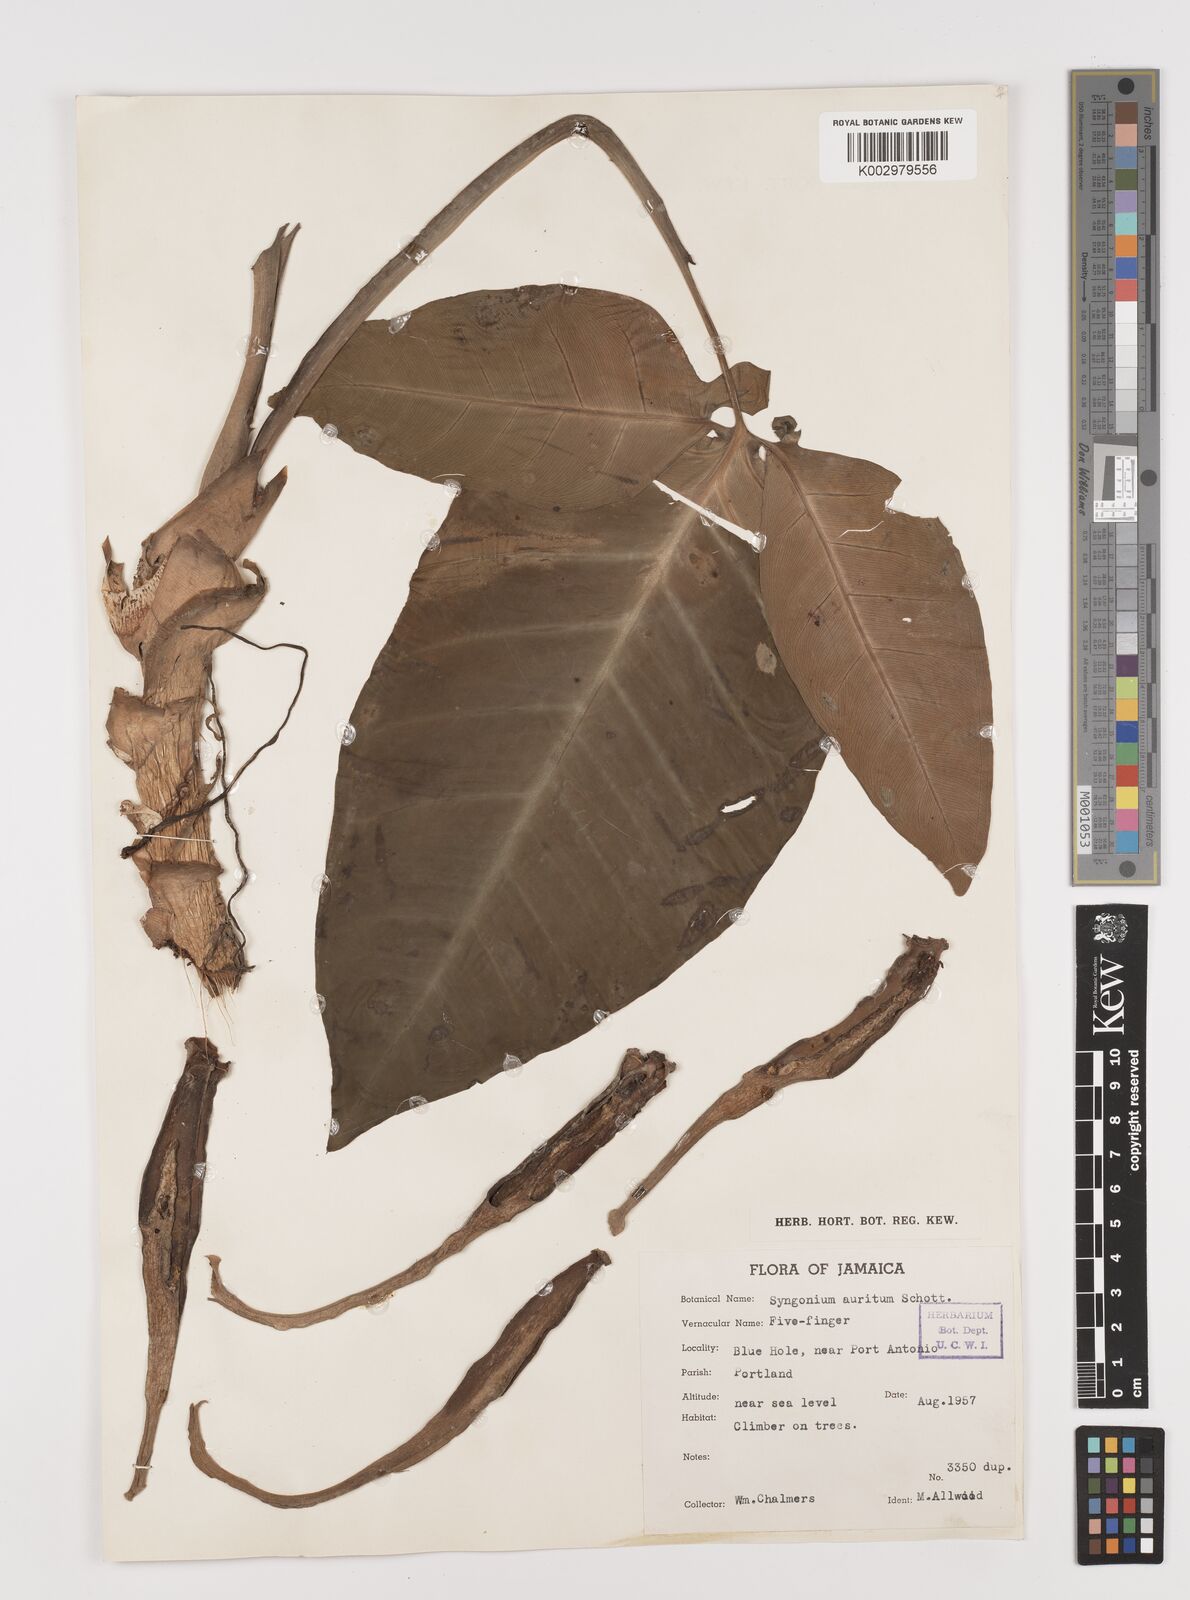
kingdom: Plantae
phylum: Tracheophyta
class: Liliopsida
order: Alismatales
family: Araceae
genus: Syngonium
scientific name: Syngonium auritum
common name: Five-fingers
